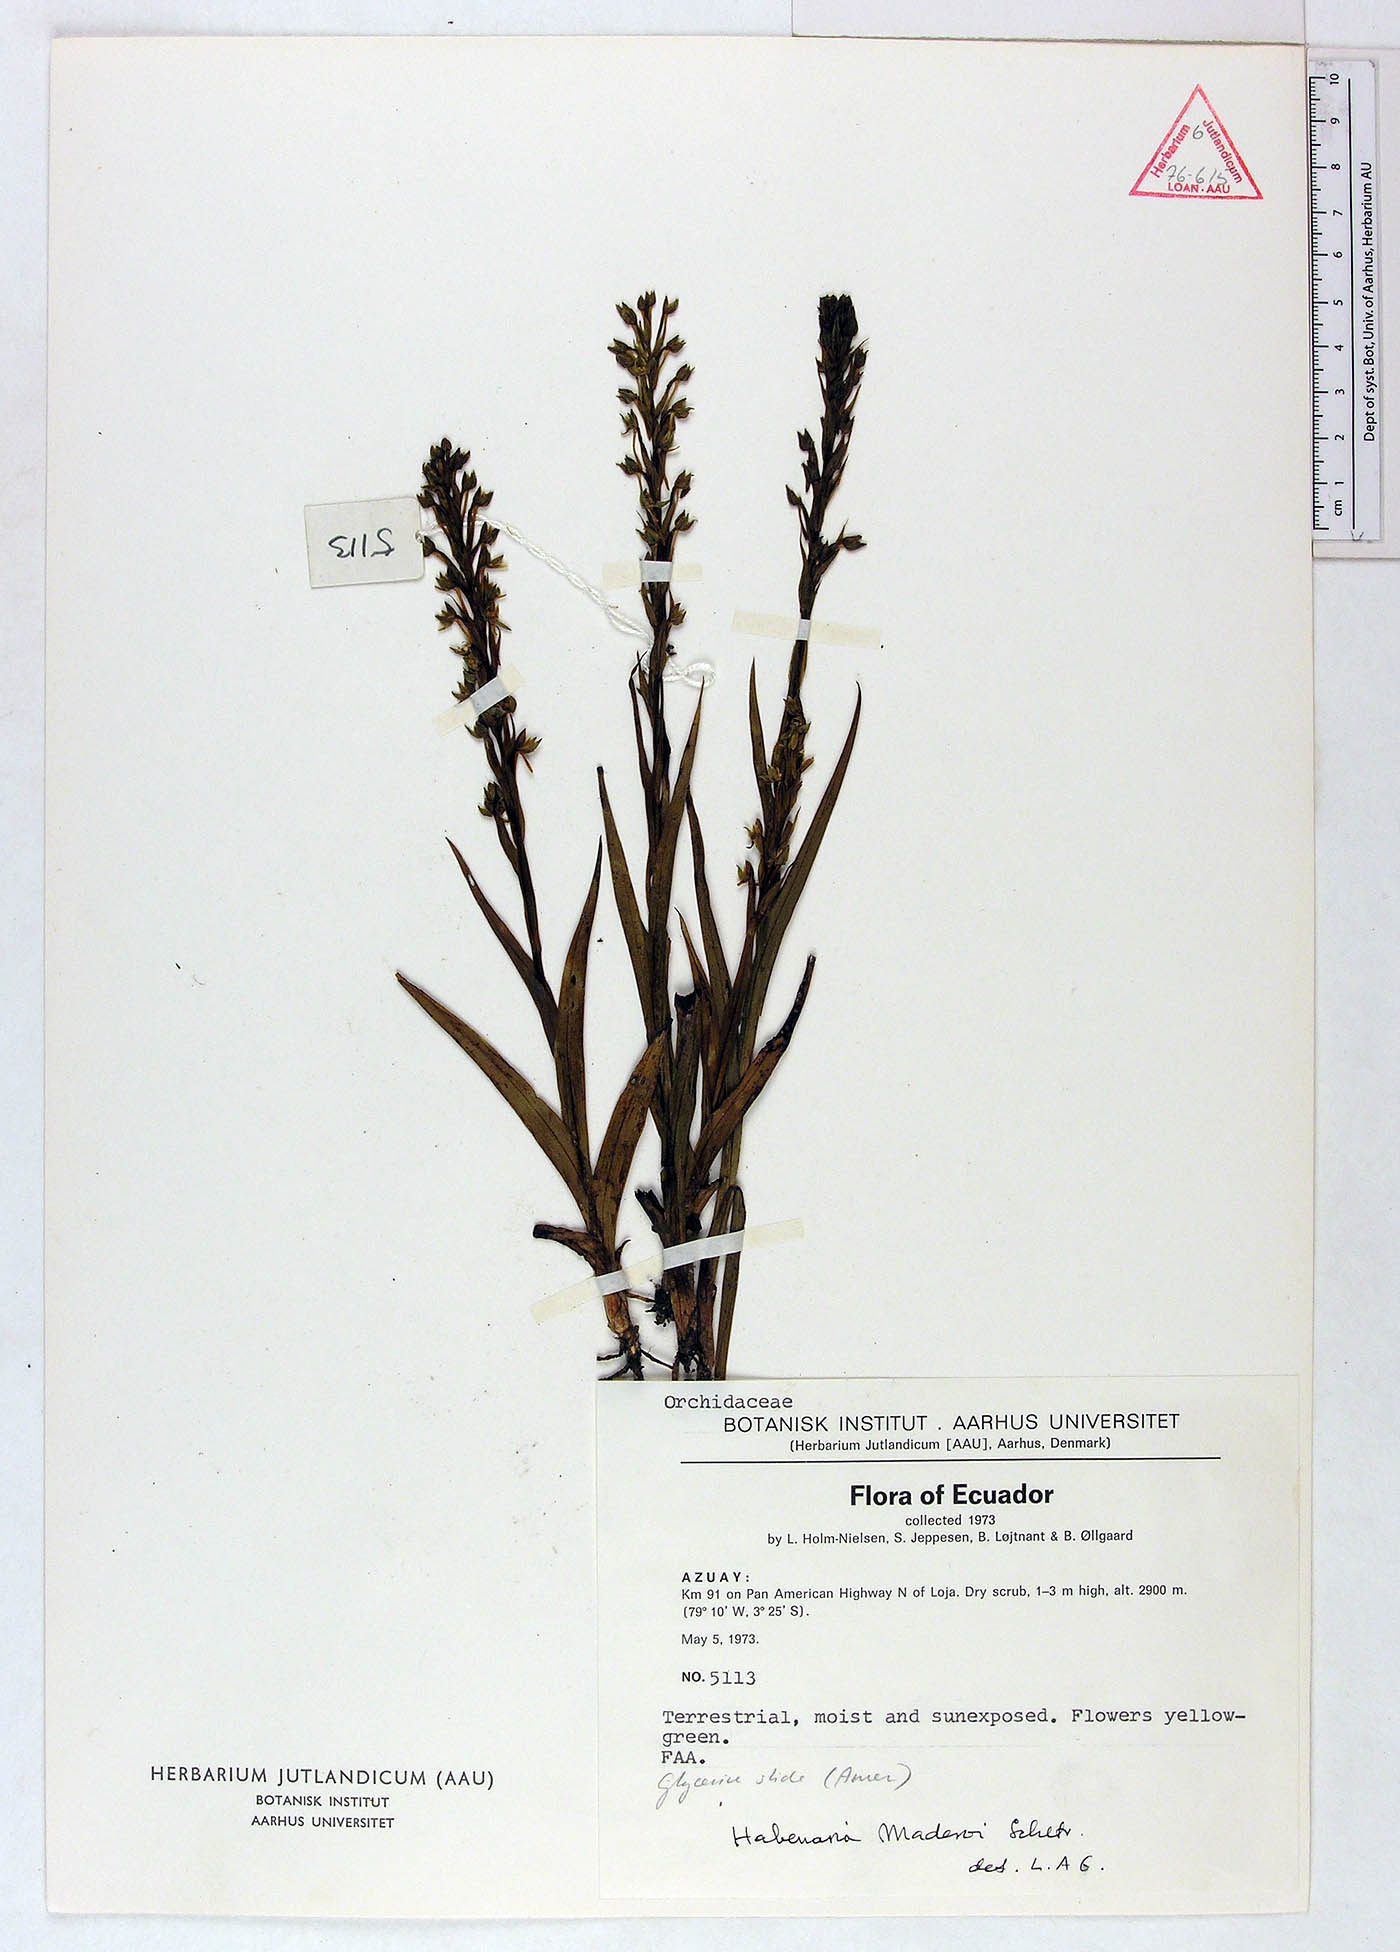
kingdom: Plantae
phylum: Tracheophyta
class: Liliopsida
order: Asparagales
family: Orchidaceae
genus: Habenaria
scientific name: Habenaria gollmeri
